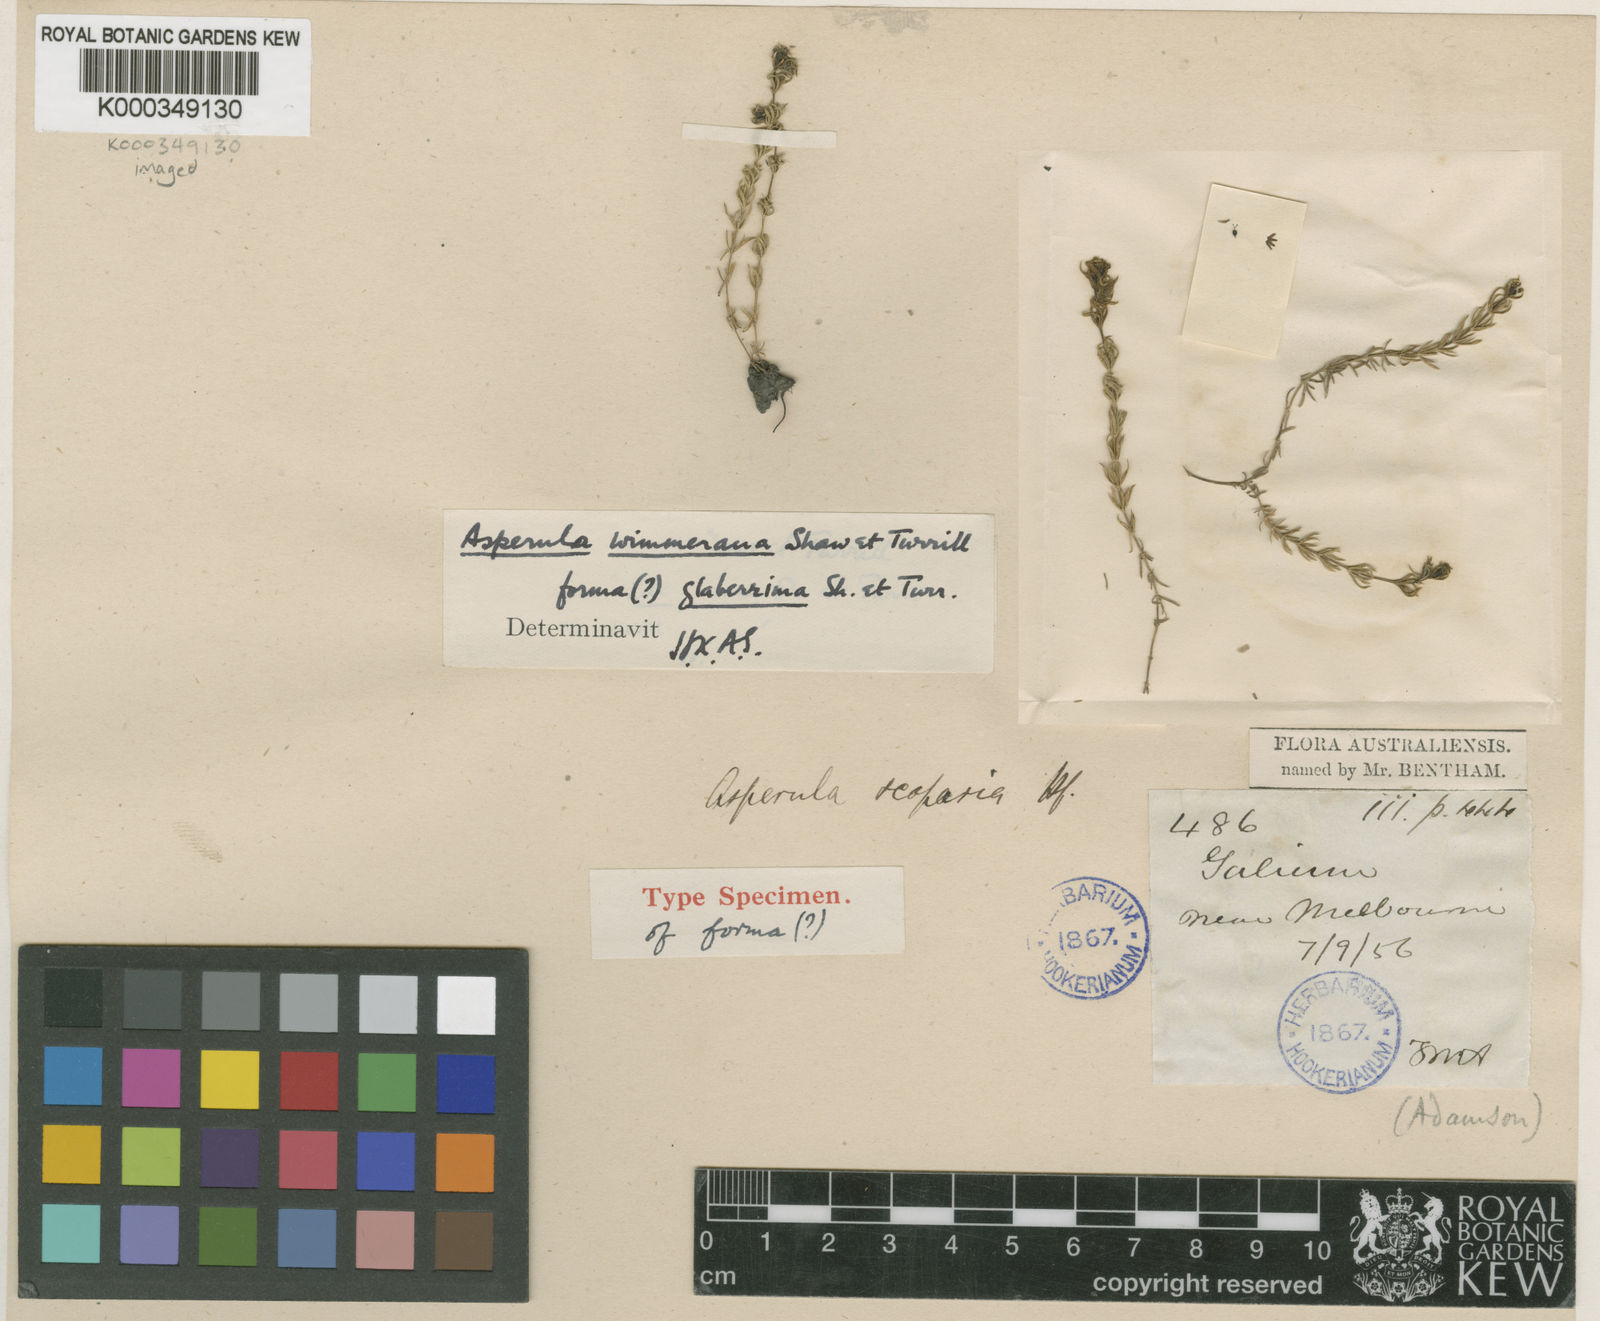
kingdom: Plantae
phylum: Tracheophyta
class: Magnoliopsida
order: Gentianales
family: Rubiaceae
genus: Asperula
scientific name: Asperula wimmeriana
